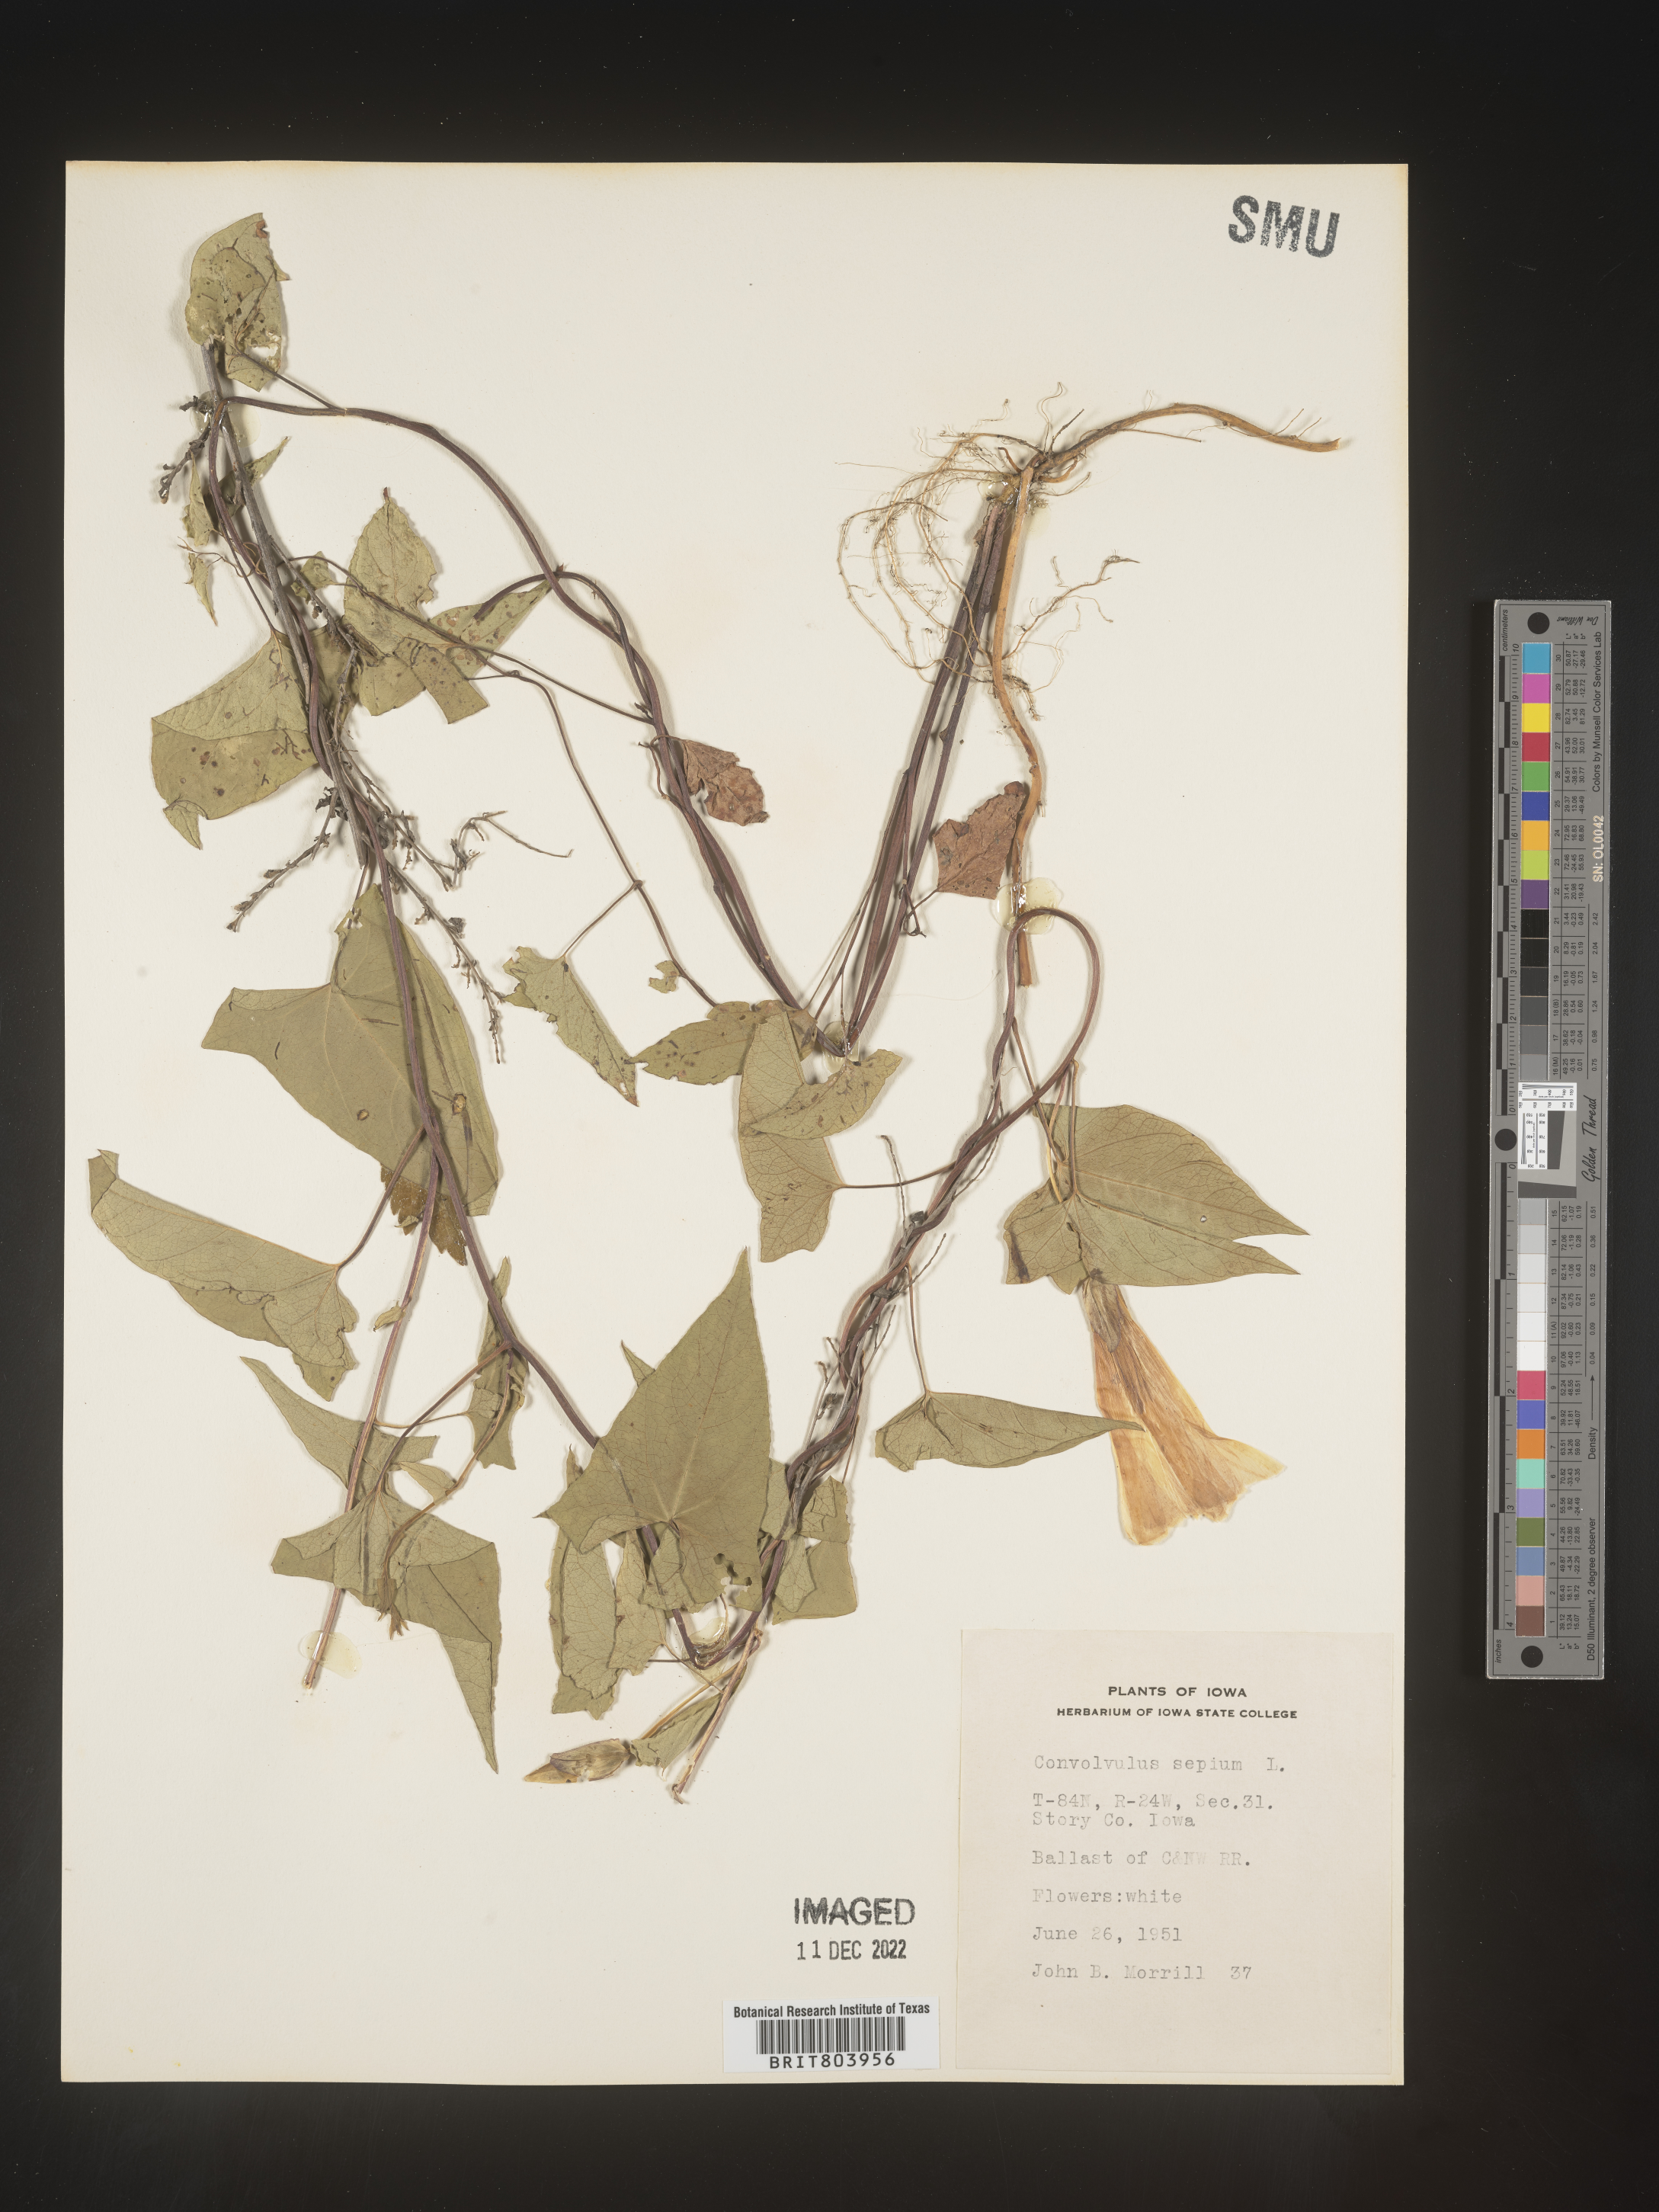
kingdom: Plantae
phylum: Tracheophyta
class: Magnoliopsida
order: Solanales
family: Convolvulaceae
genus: Calystegia
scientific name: Calystegia sepium
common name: Hedge bindweed
